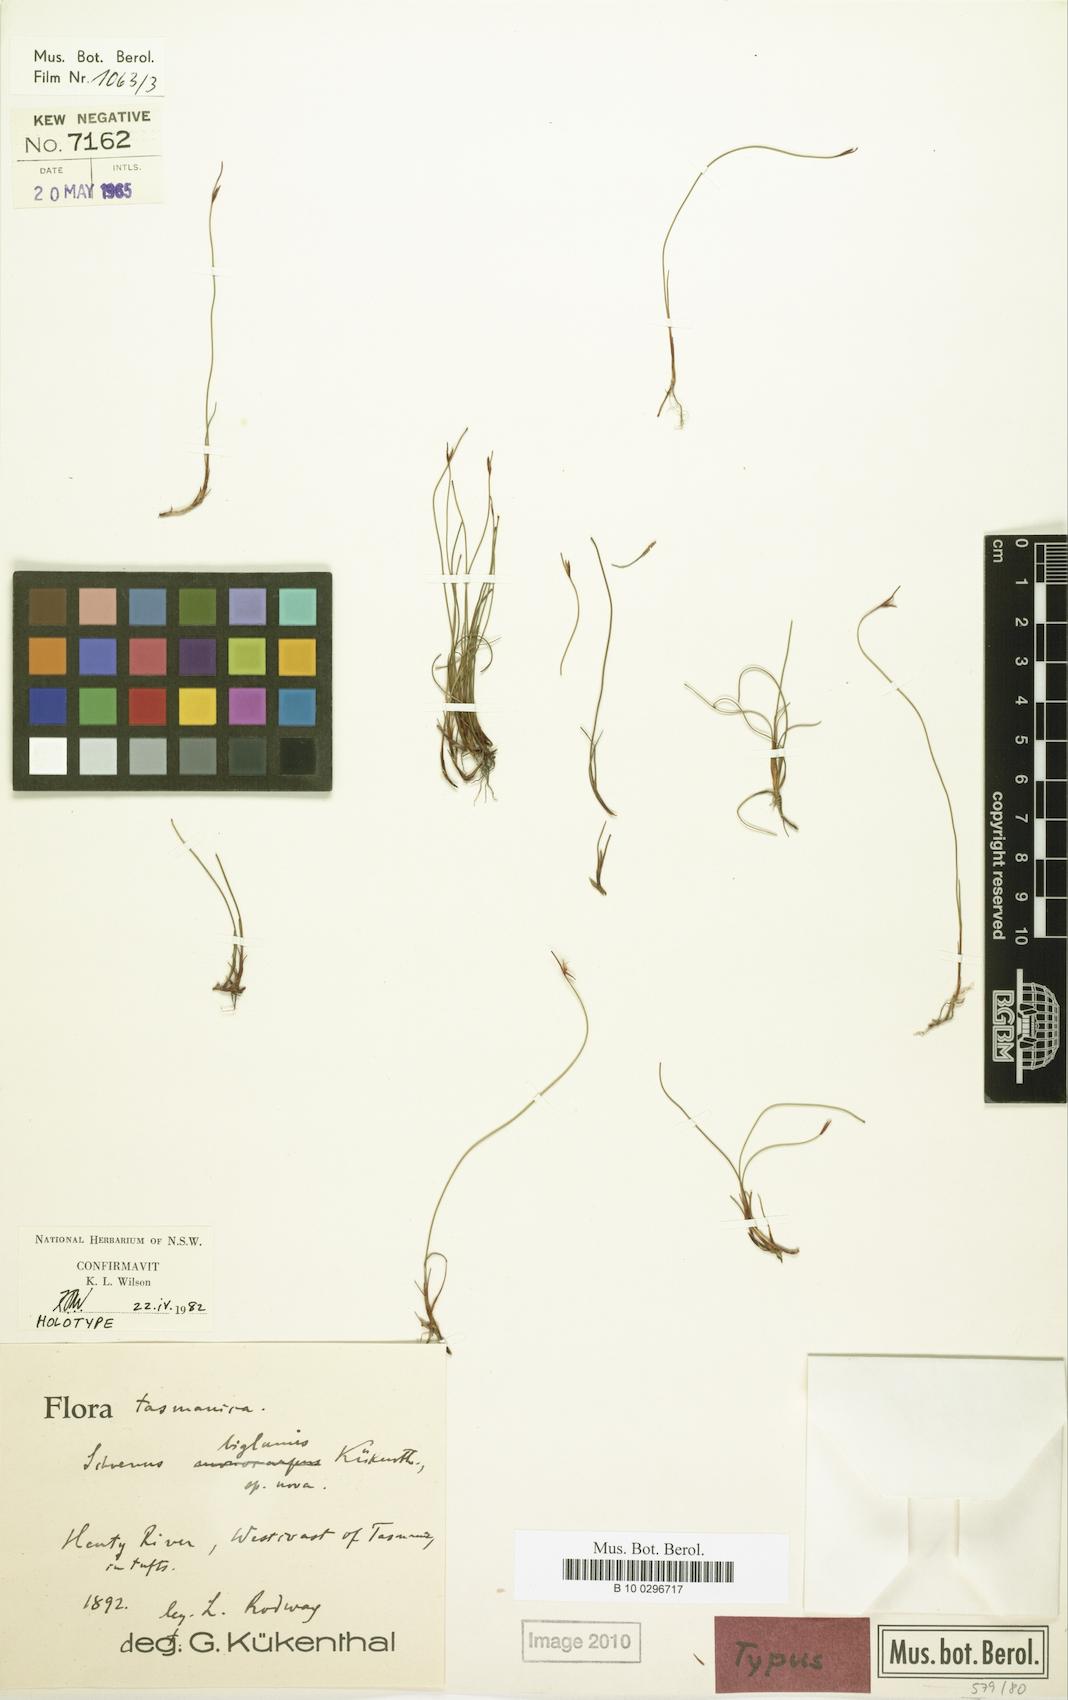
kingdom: Plantae
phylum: Tracheophyta
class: Liliopsida
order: Poales
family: Cyperaceae
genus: Schoenus
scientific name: Schoenus biglumis
